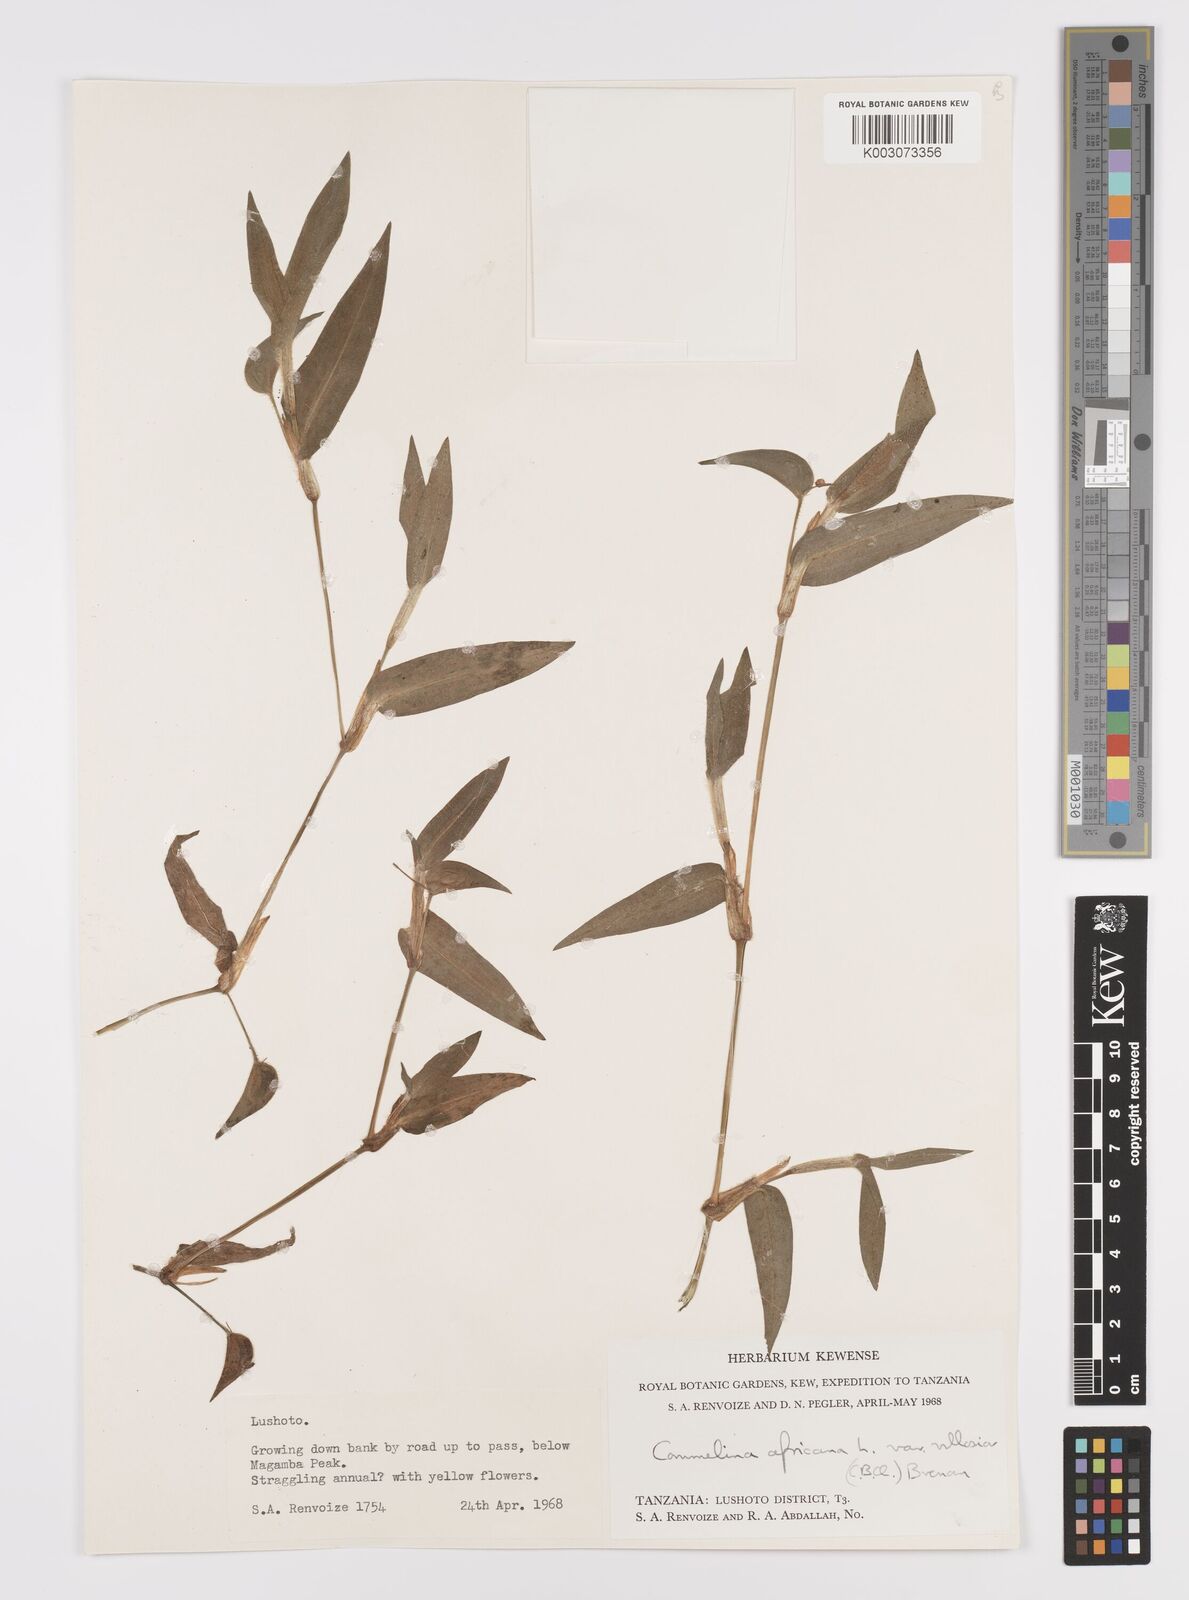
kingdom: Plantae
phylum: Tracheophyta
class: Liliopsida
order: Commelinales
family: Commelinaceae
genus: Commelina
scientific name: Commelina africana
